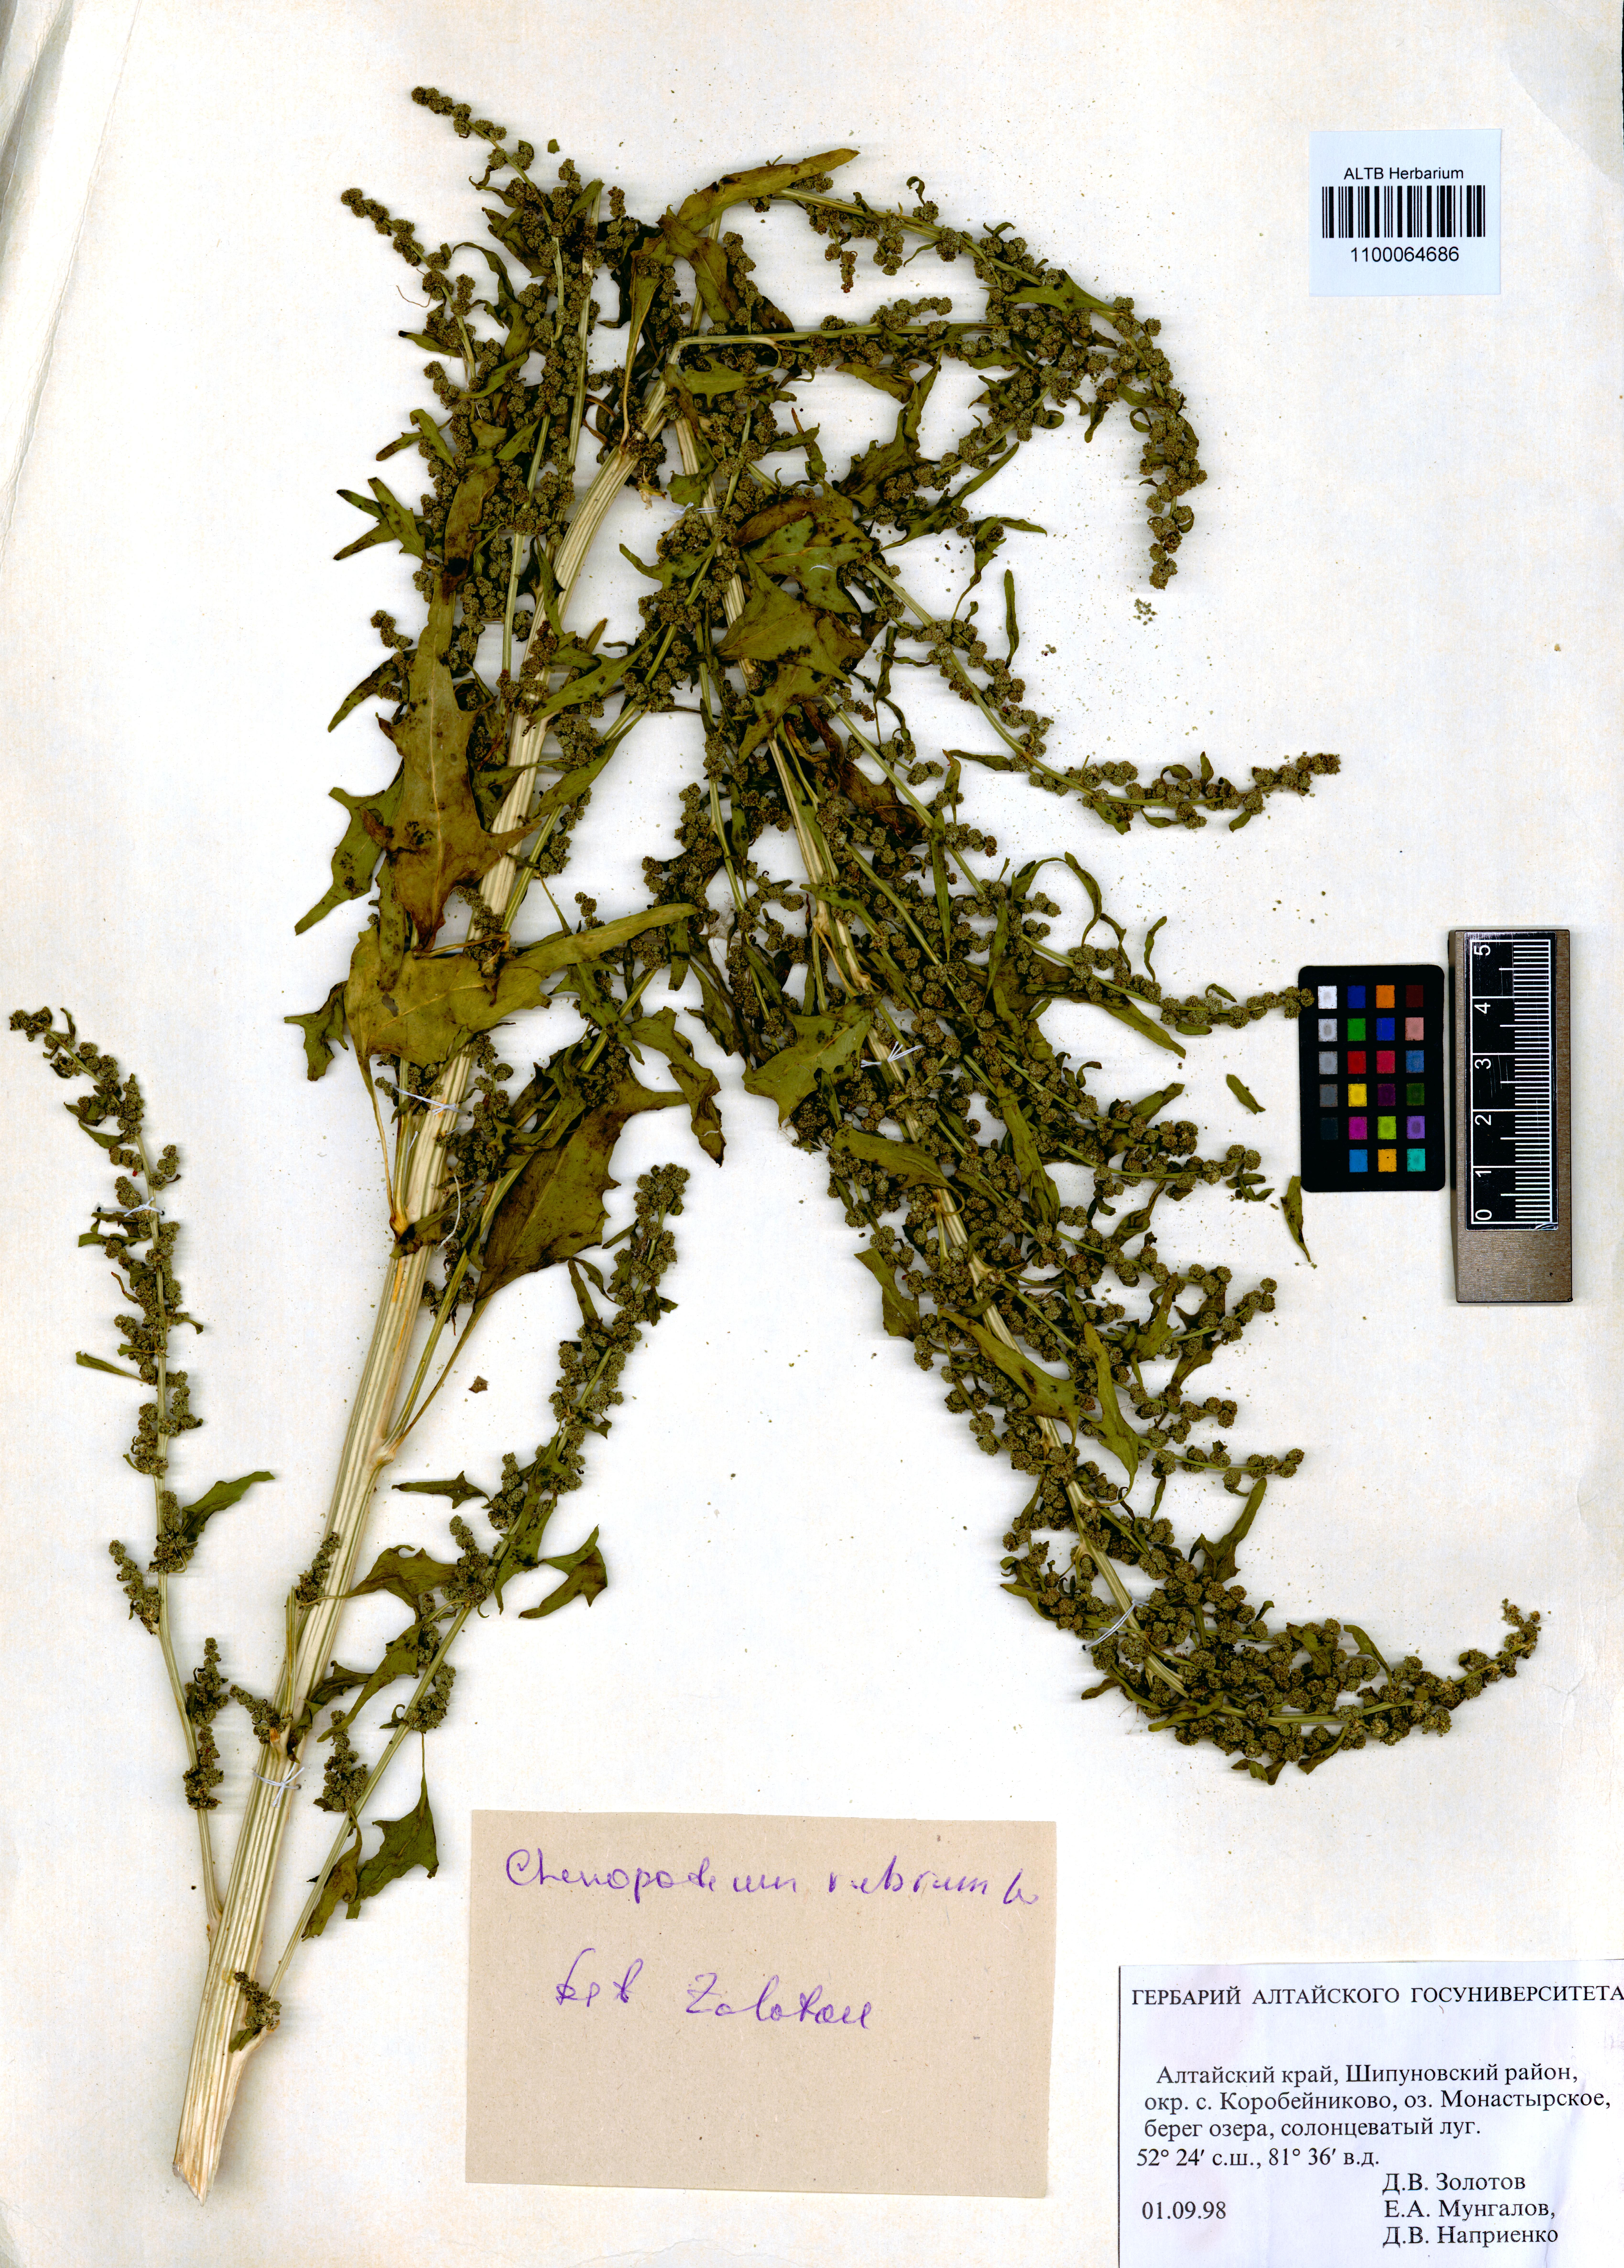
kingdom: Plantae
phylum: Tracheophyta
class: Magnoliopsida
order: Caryophyllales
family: Amaranthaceae
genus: Oxybasis
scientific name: Oxybasis rubra
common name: Red goosefoot
